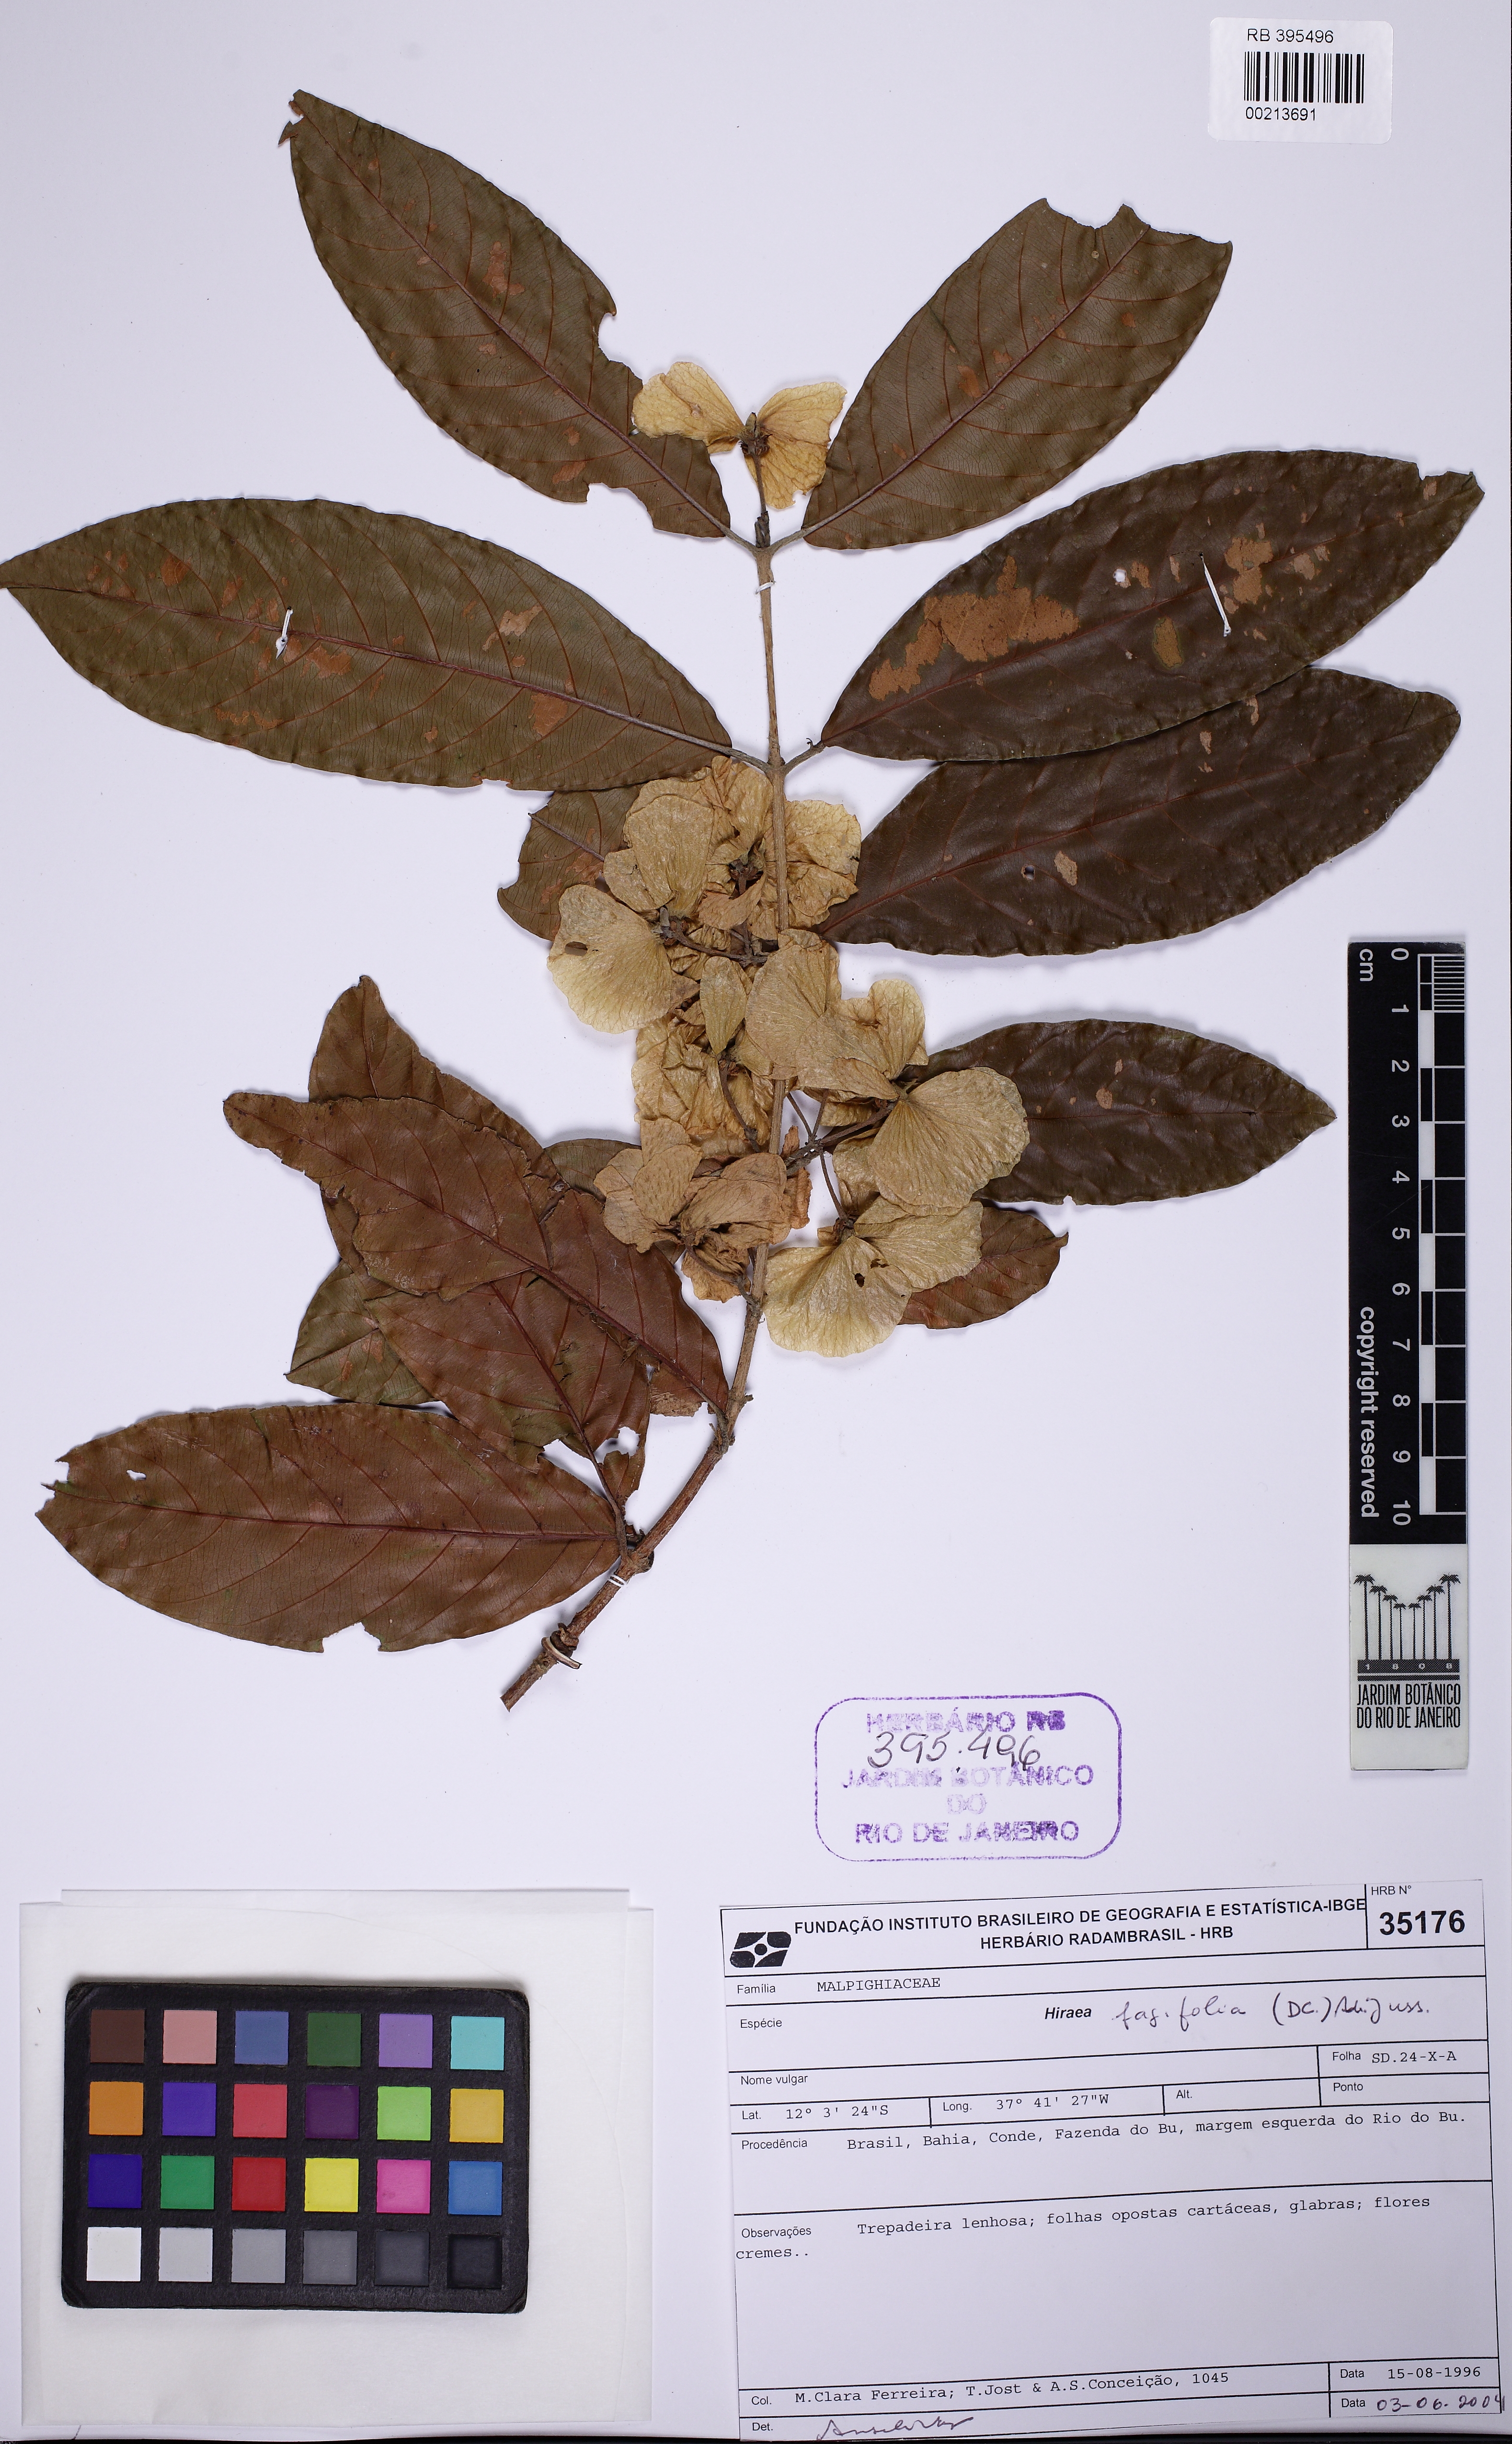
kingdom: Plantae
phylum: Tracheophyta
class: Magnoliopsida
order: Malpighiales
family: Malpighiaceae
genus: Hiraea
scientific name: Hiraea fagifolia
